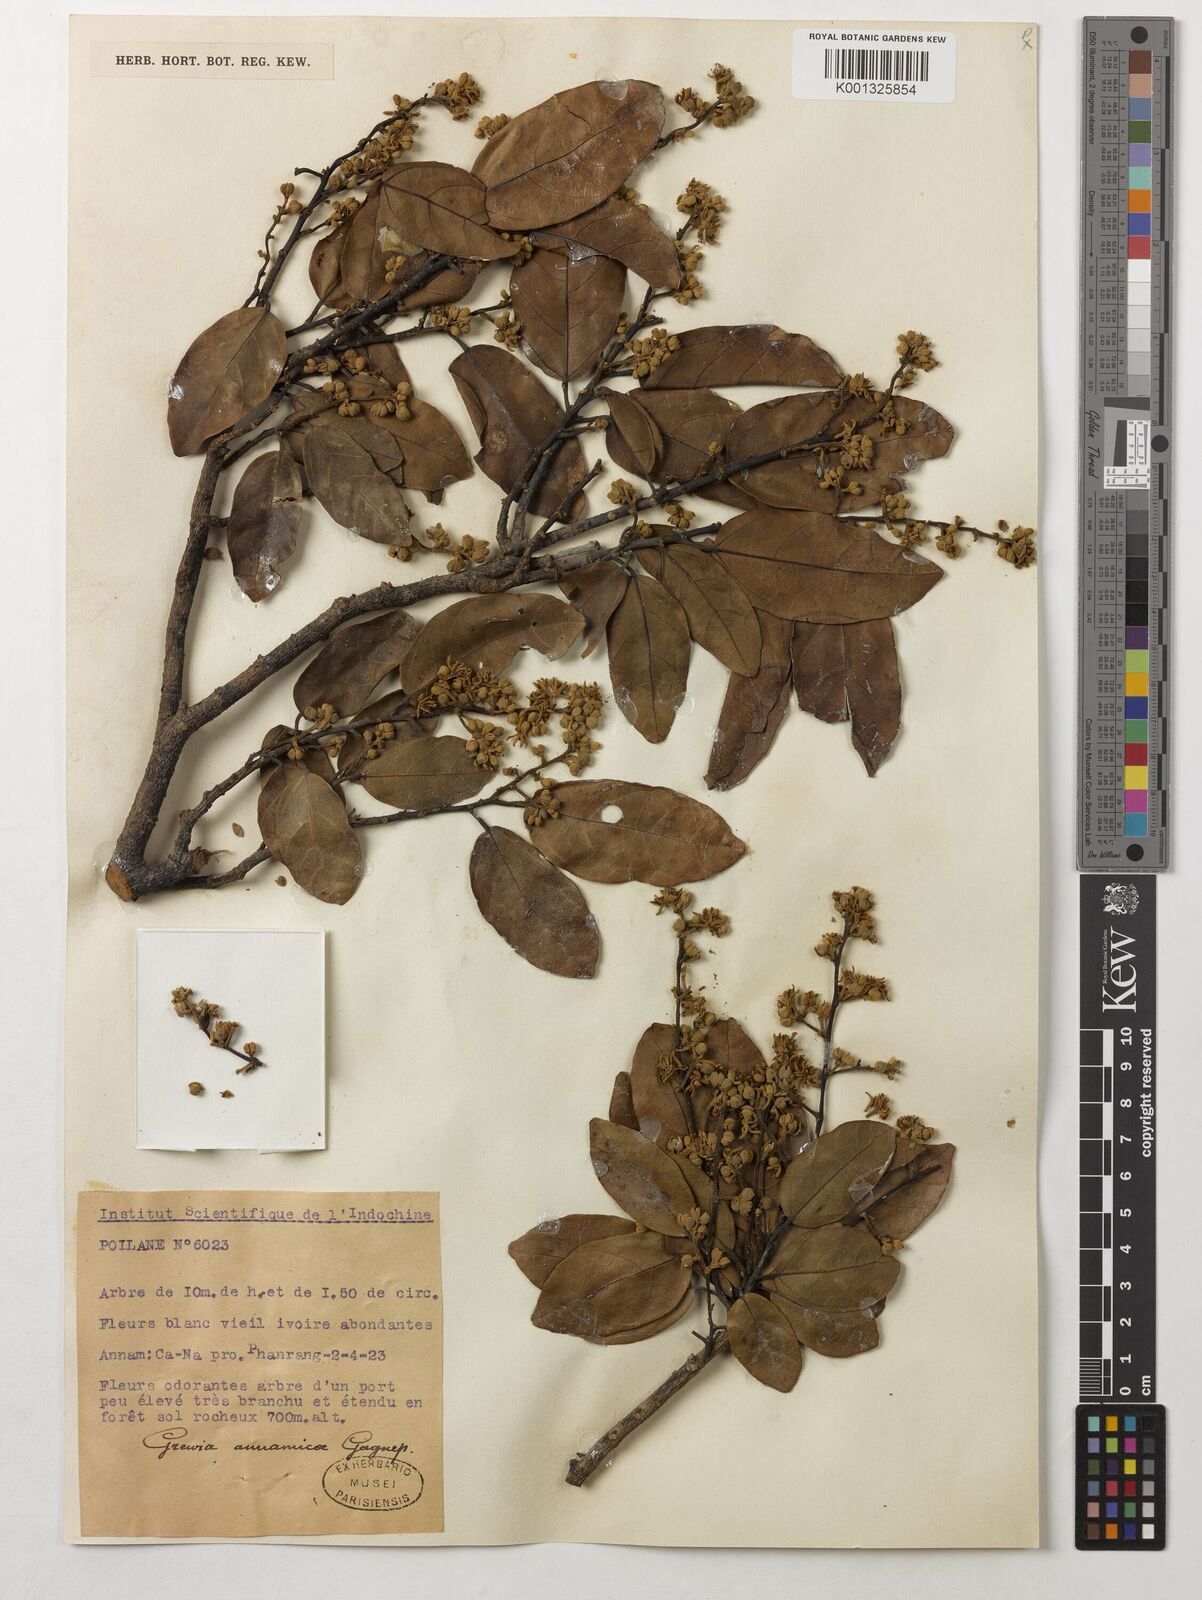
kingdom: Plantae
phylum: Tracheophyta
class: Magnoliopsida
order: Malvales
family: Malvaceae
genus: Grewia
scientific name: Grewia annamica
